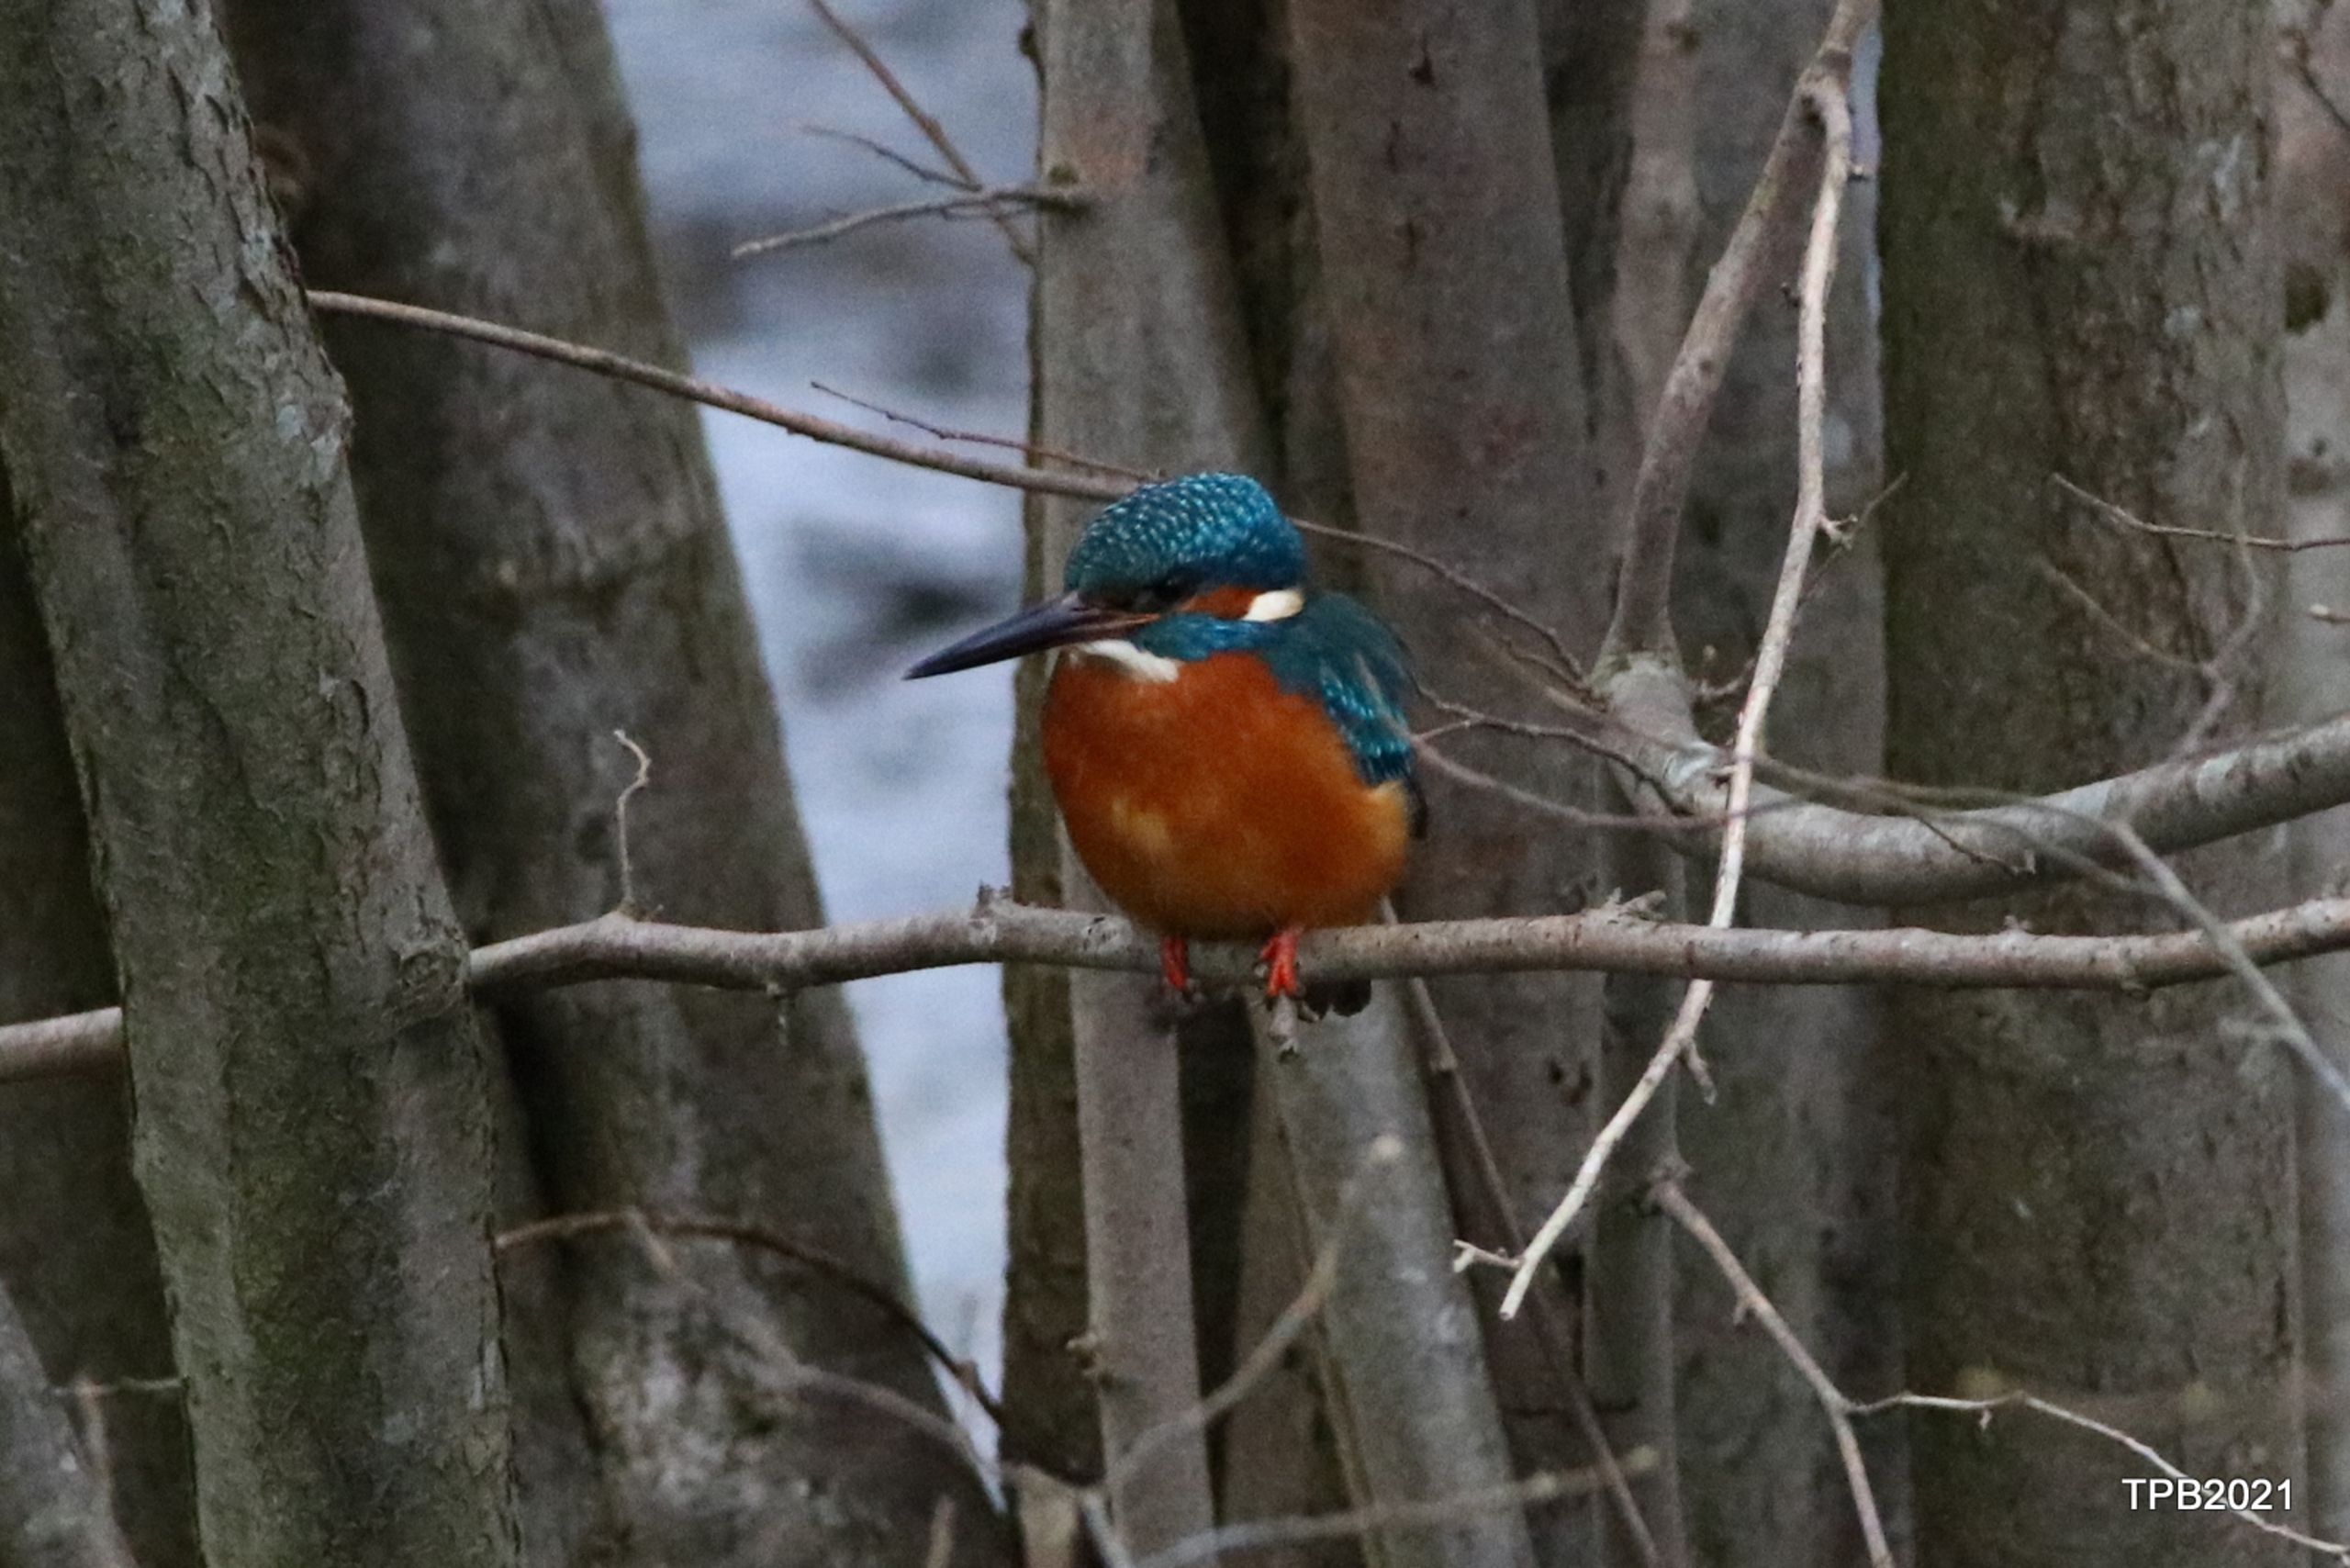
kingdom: Animalia
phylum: Chordata
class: Aves
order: Coraciiformes
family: Alcedinidae
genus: Alcedo
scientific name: Alcedo atthis
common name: Isfugl
